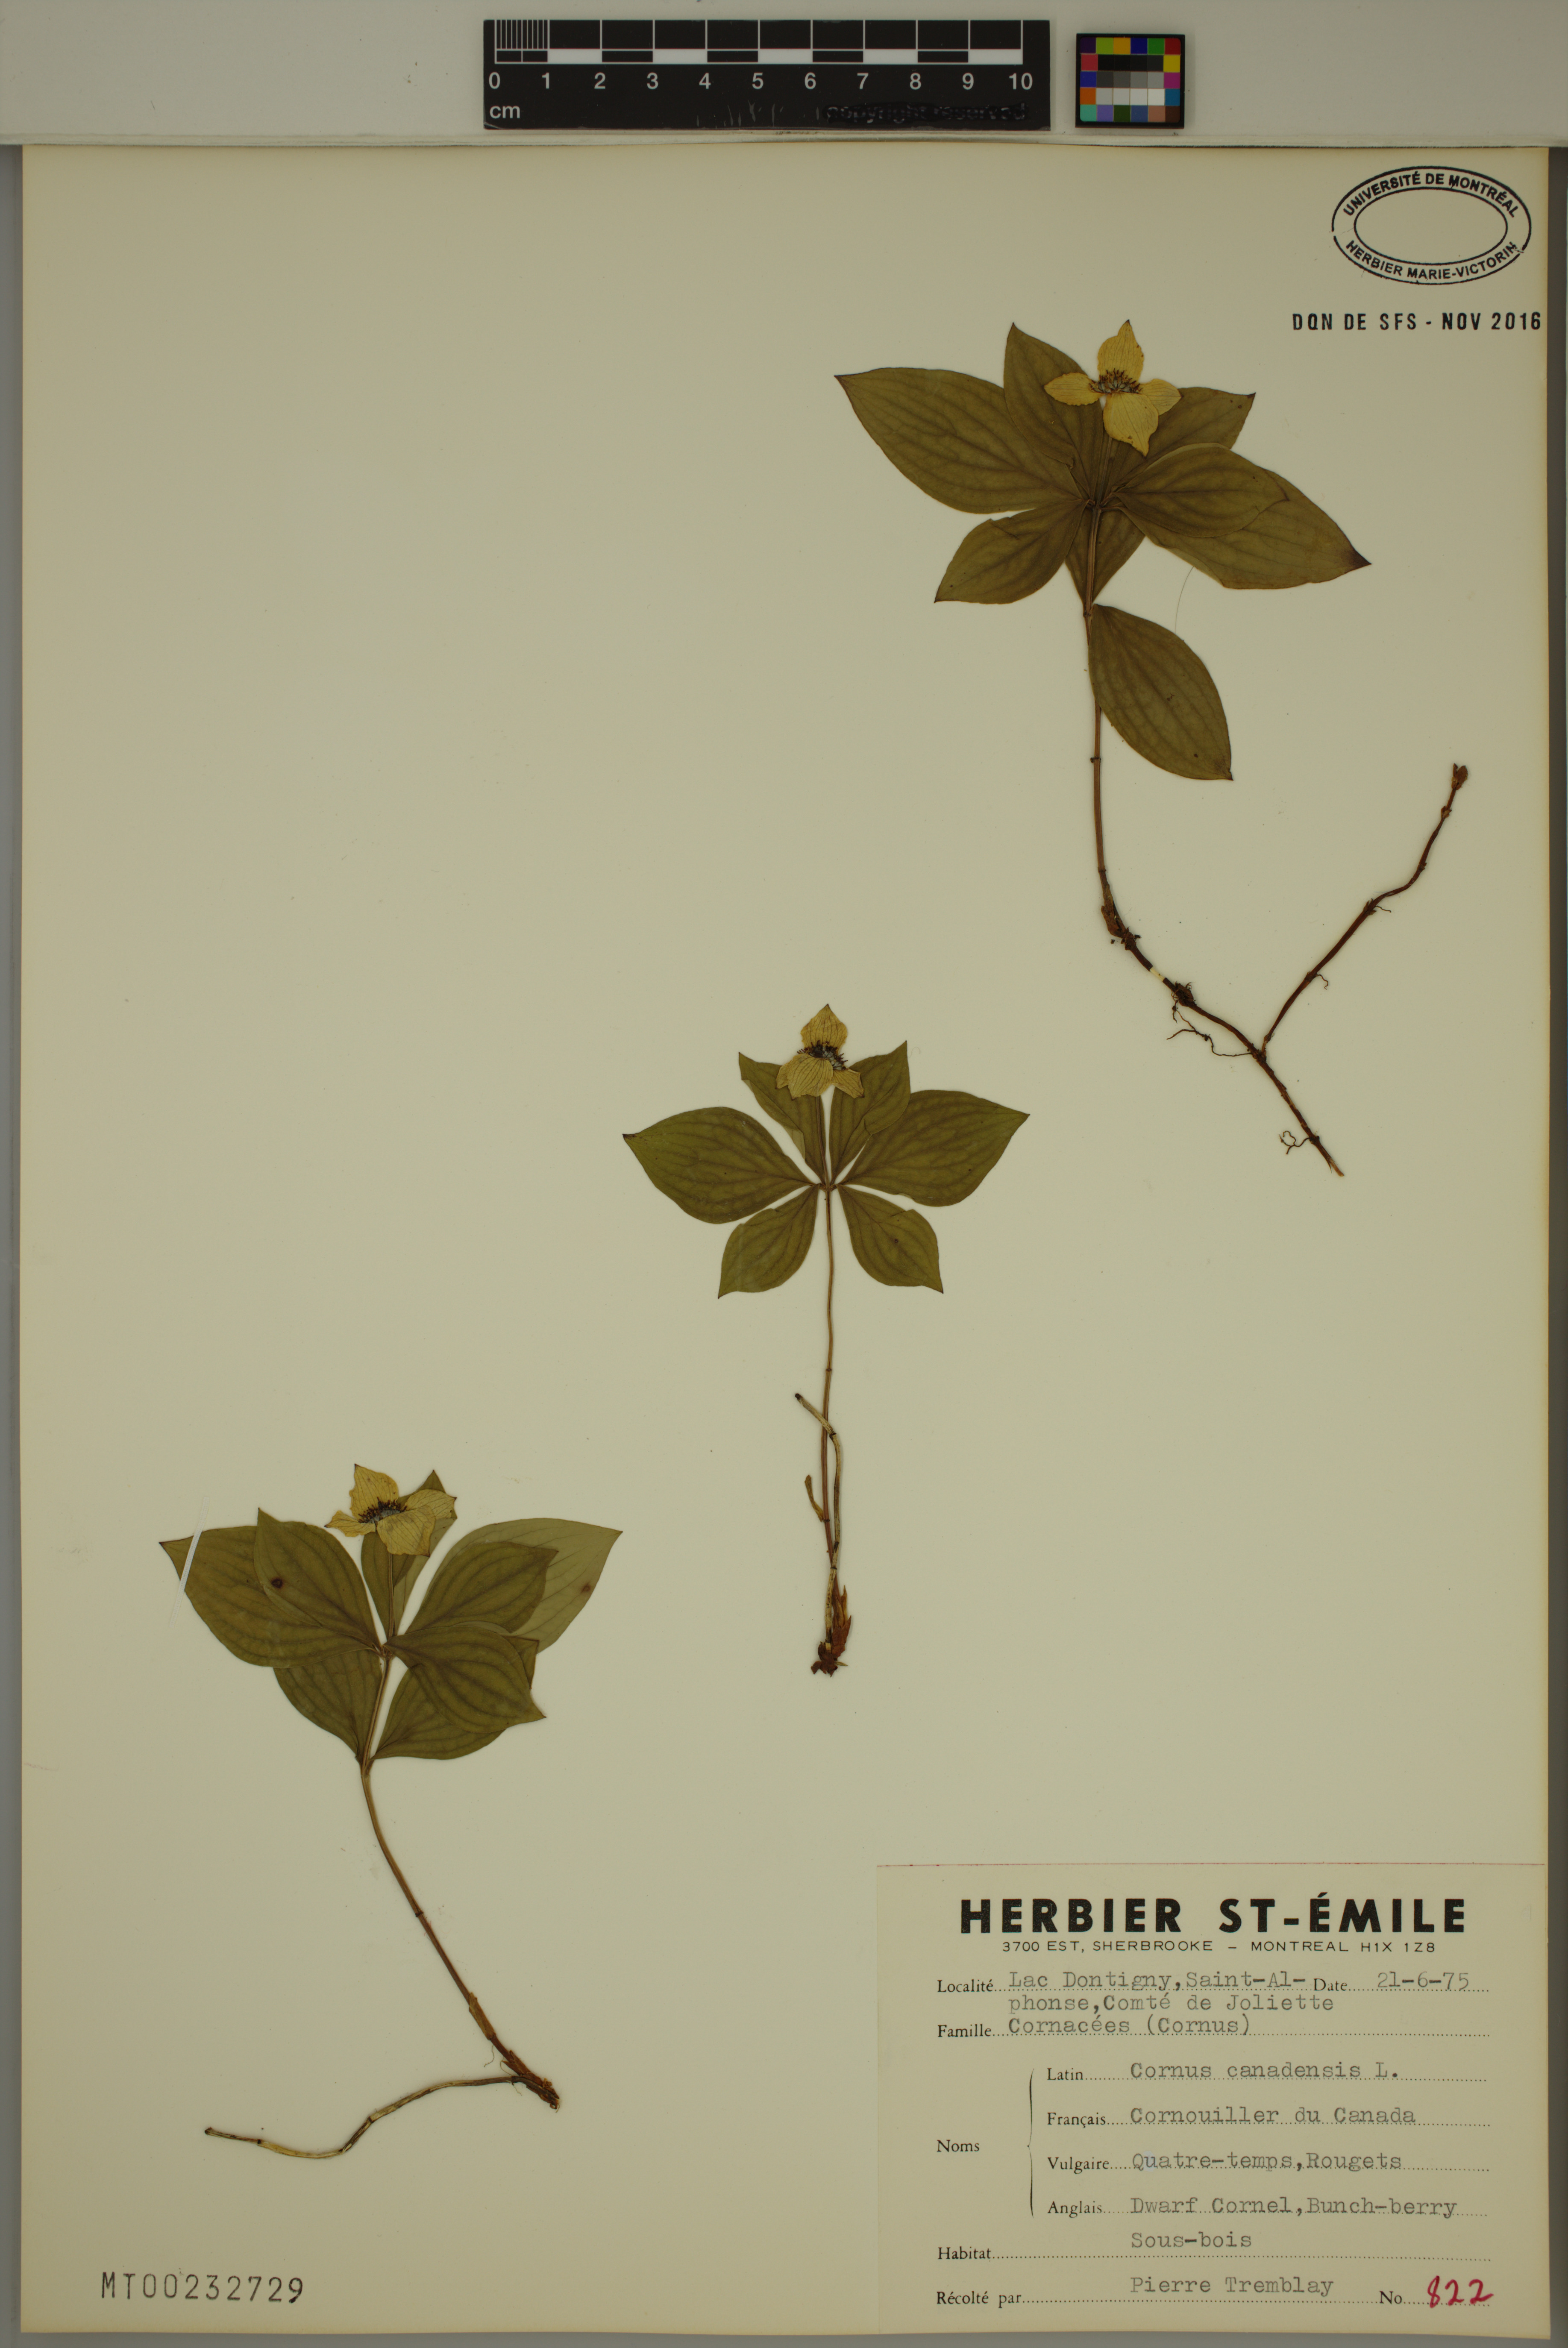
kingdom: Plantae
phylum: Tracheophyta
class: Magnoliopsida
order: Cornales
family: Cornaceae
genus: Cornus
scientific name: Cornus canadensis
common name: Creeping dogwood
